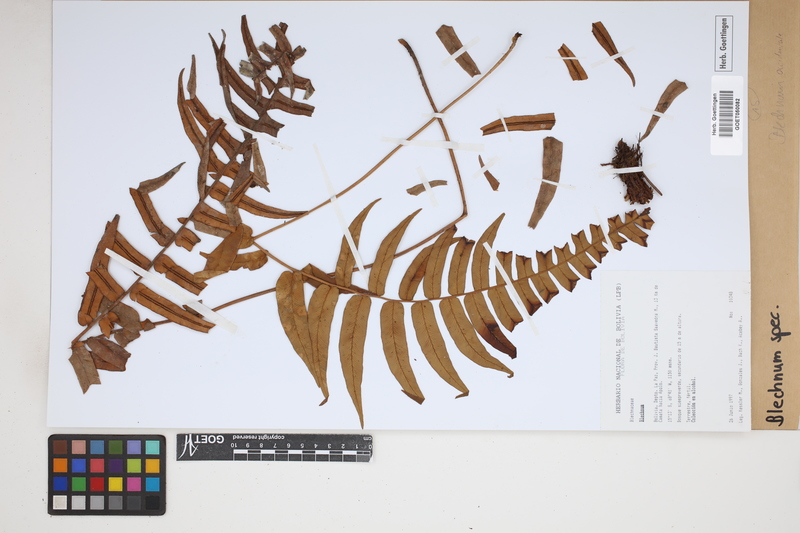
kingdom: Plantae
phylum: Tracheophyta
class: Polypodiopsida
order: Polypodiales
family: Blechnaceae
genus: Blechnum
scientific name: Blechnum
